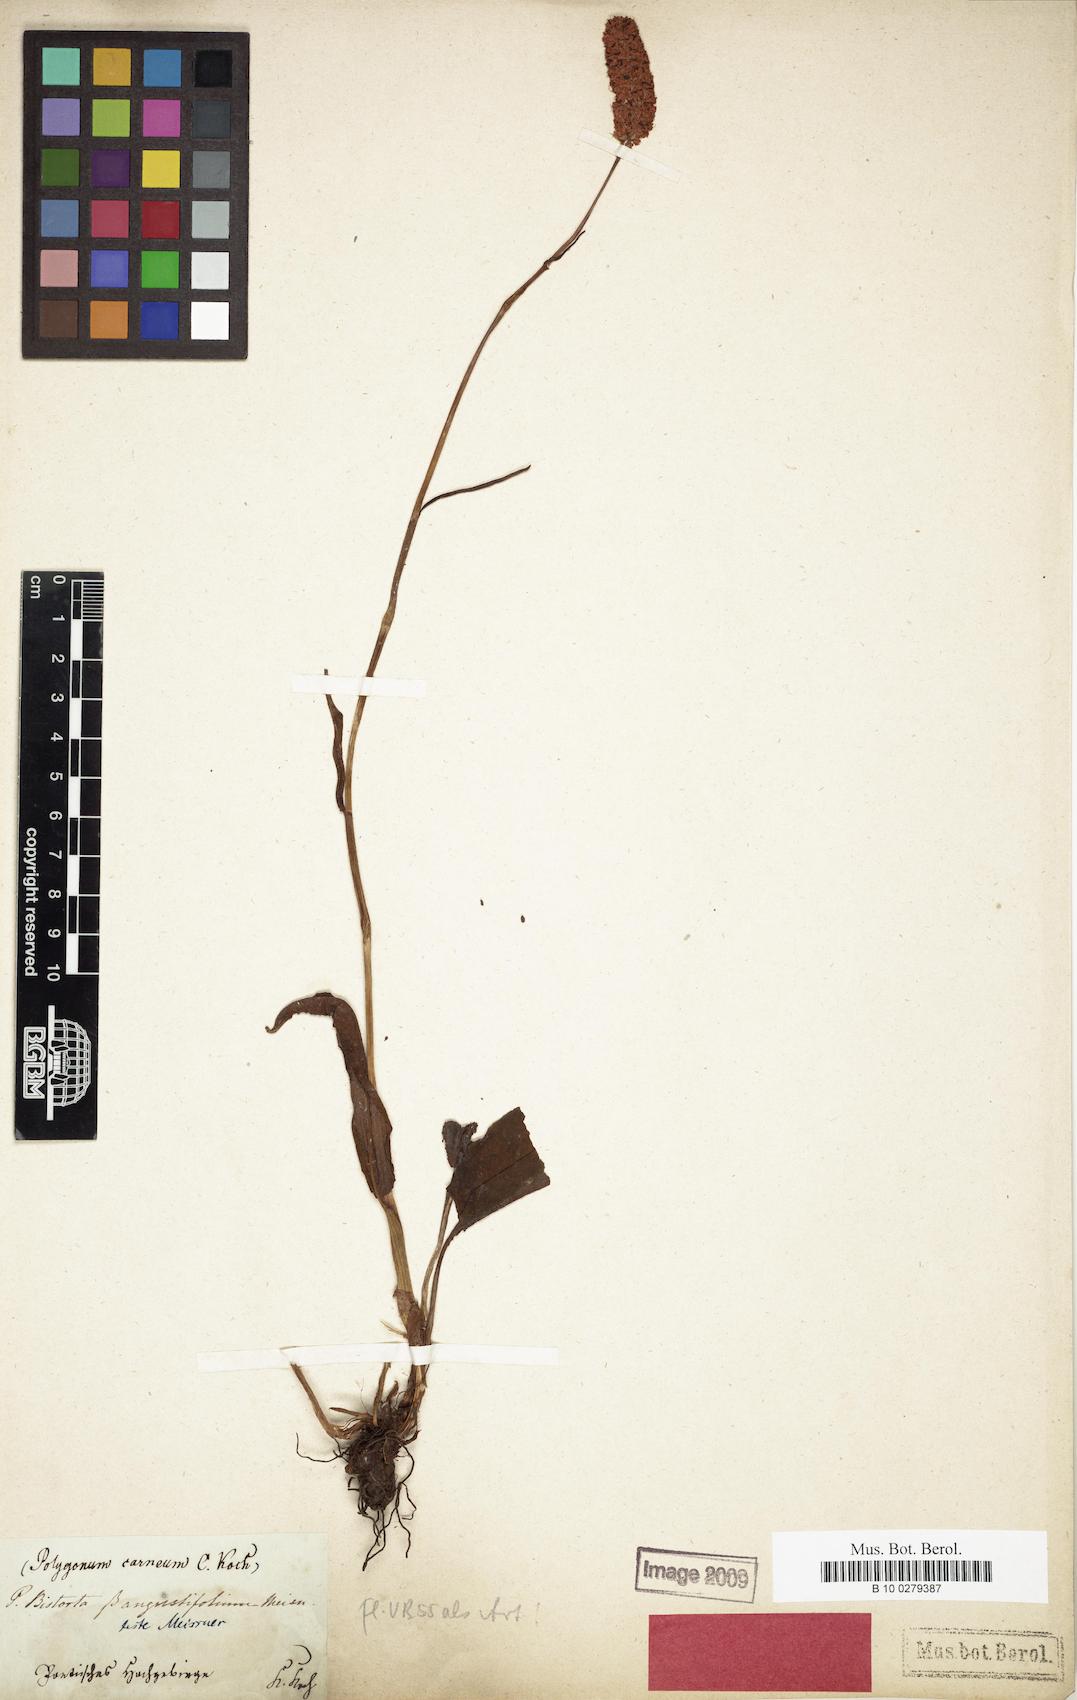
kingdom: Plantae
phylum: Tracheophyta
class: Magnoliopsida
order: Caryophyllales
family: Polygonaceae
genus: Bistorta
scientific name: Bistorta carnea
